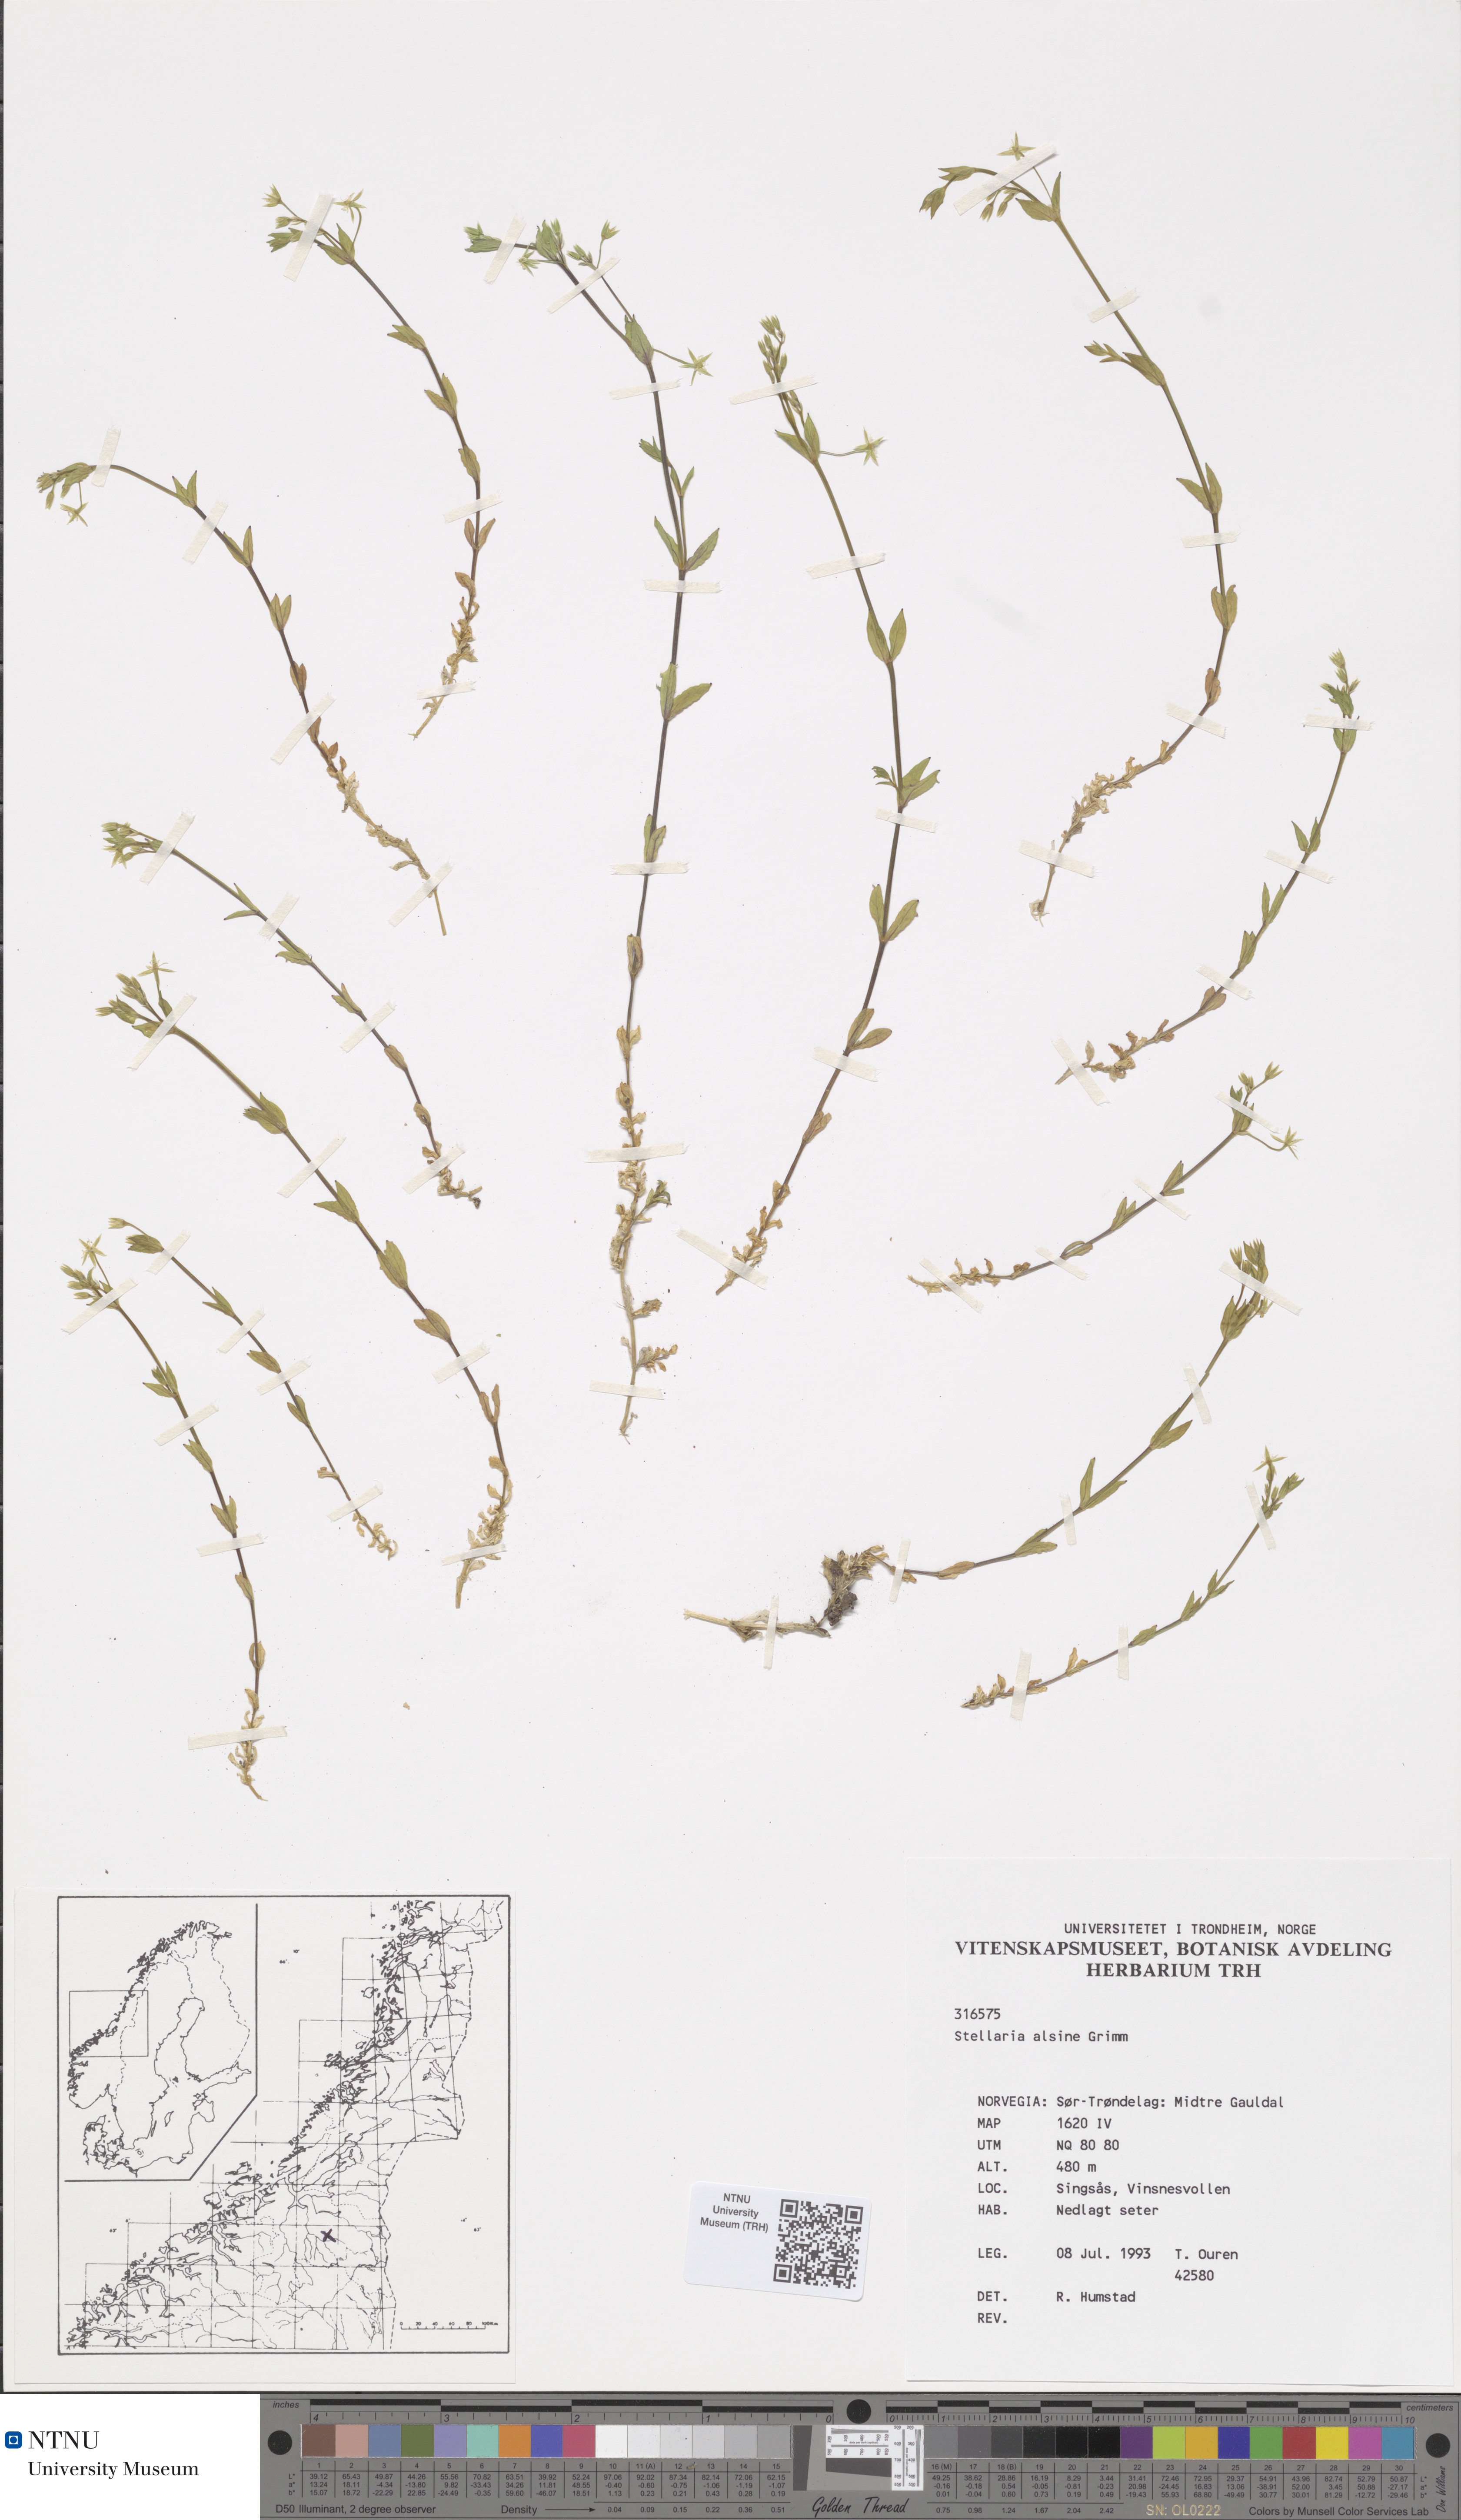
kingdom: Plantae
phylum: Tracheophyta
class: Magnoliopsida
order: Caryophyllales
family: Caryophyllaceae
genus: Stellaria
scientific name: Stellaria alsine
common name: Bog stitchwort
